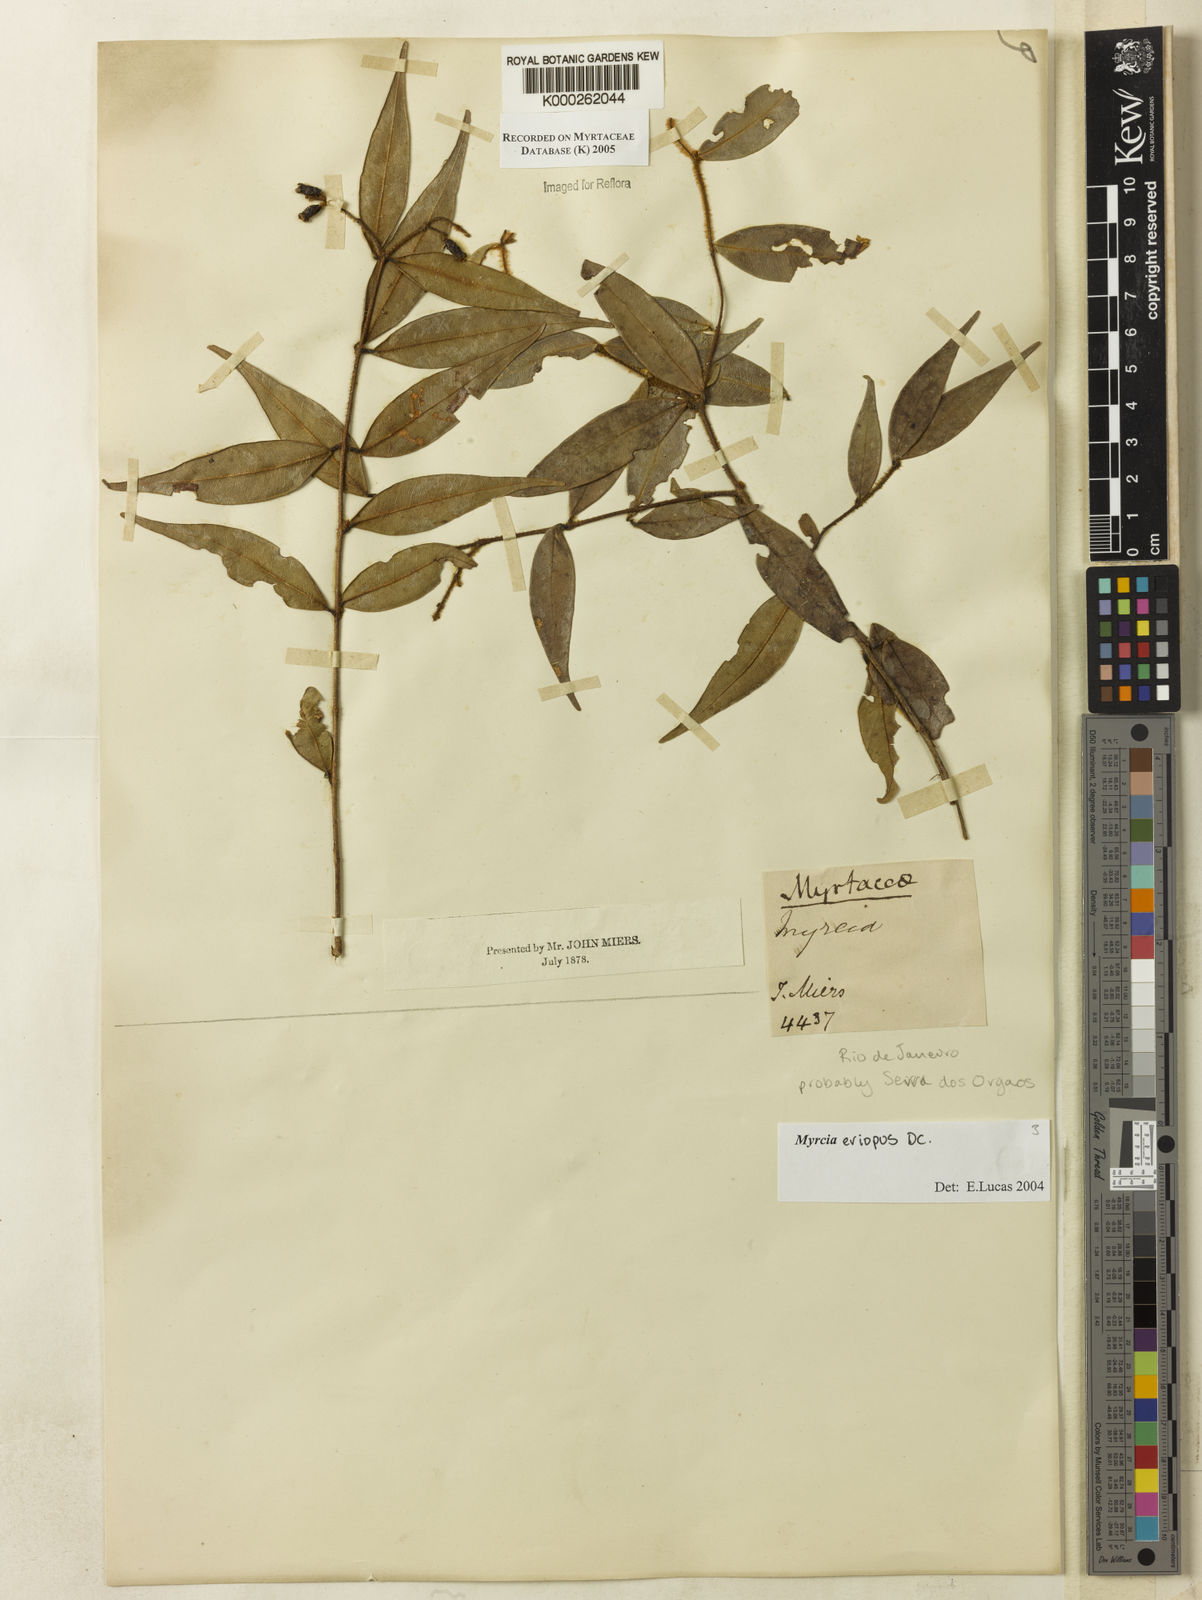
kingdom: Plantae
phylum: Tracheophyta
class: Magnoliopsida
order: Myrtales
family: Myrtaceae
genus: Myrcia
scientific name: Myrcia eriopus
